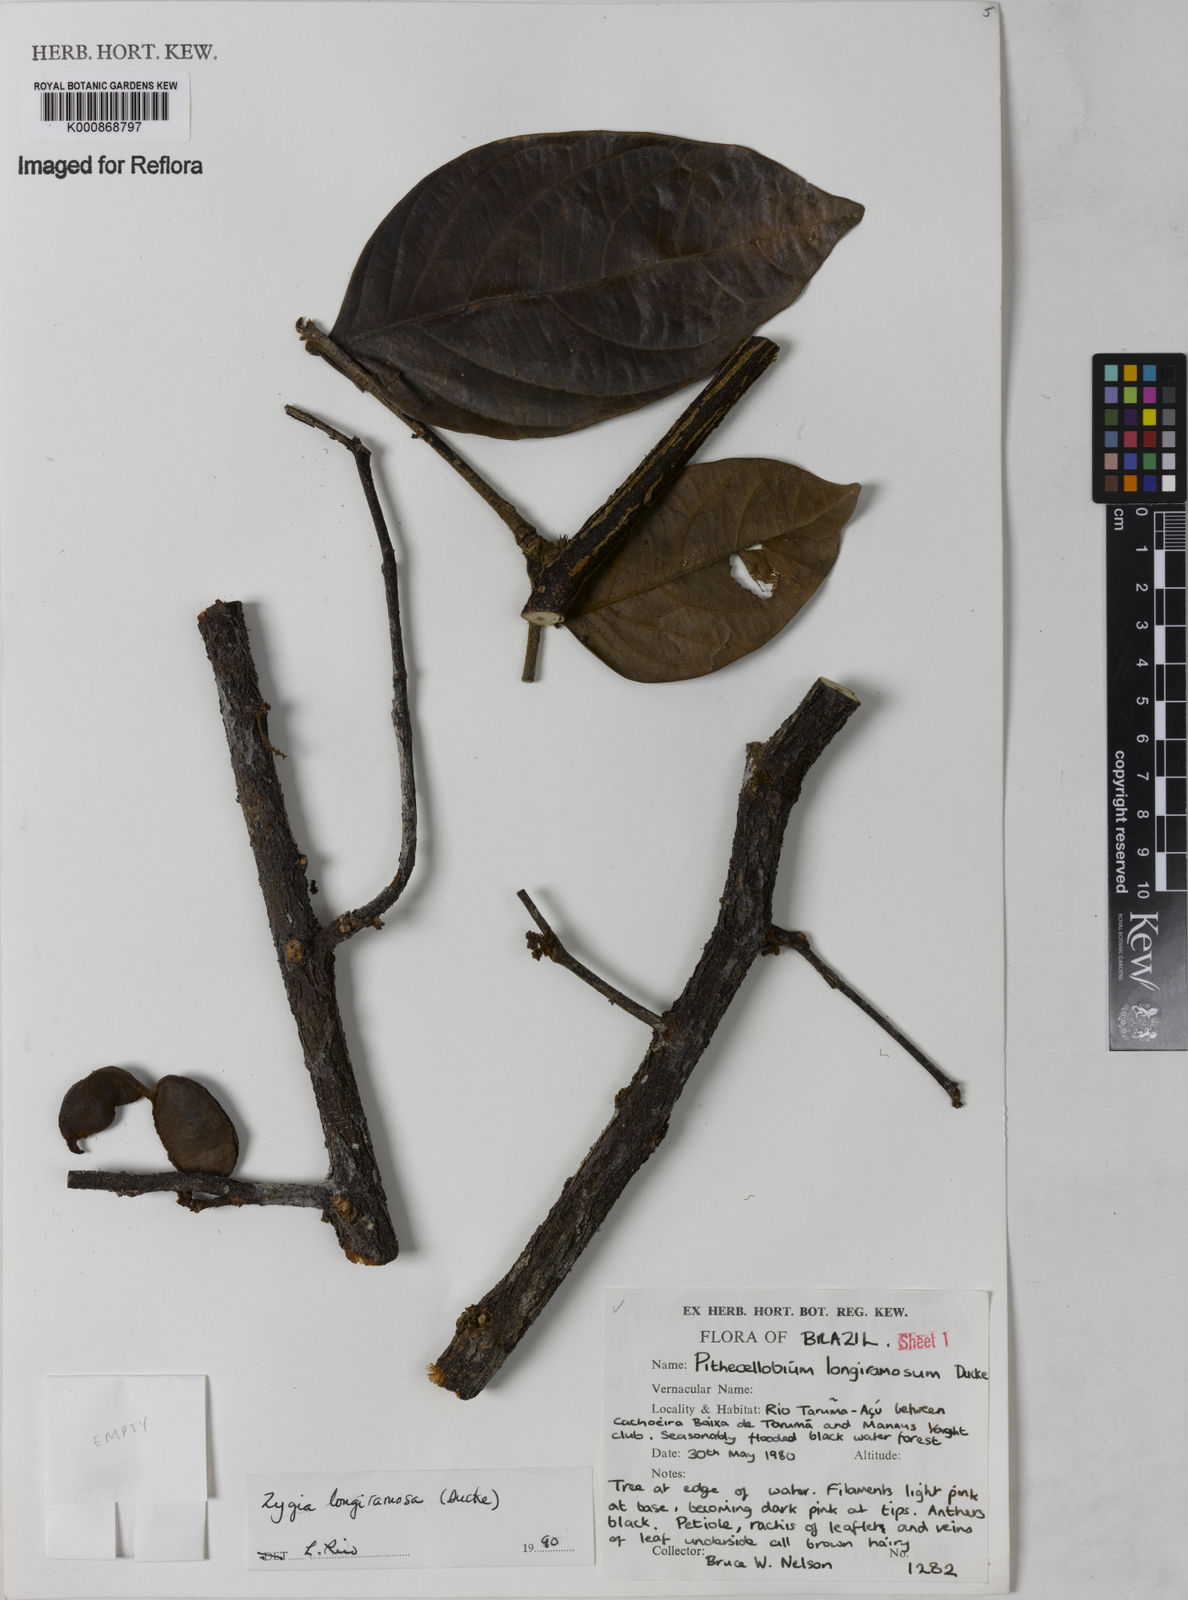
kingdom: Plantae
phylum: Tracheophyta
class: Magnoliopsida
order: Fabales
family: Fabaceae
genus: Zygia
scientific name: Zygia inaequalis
